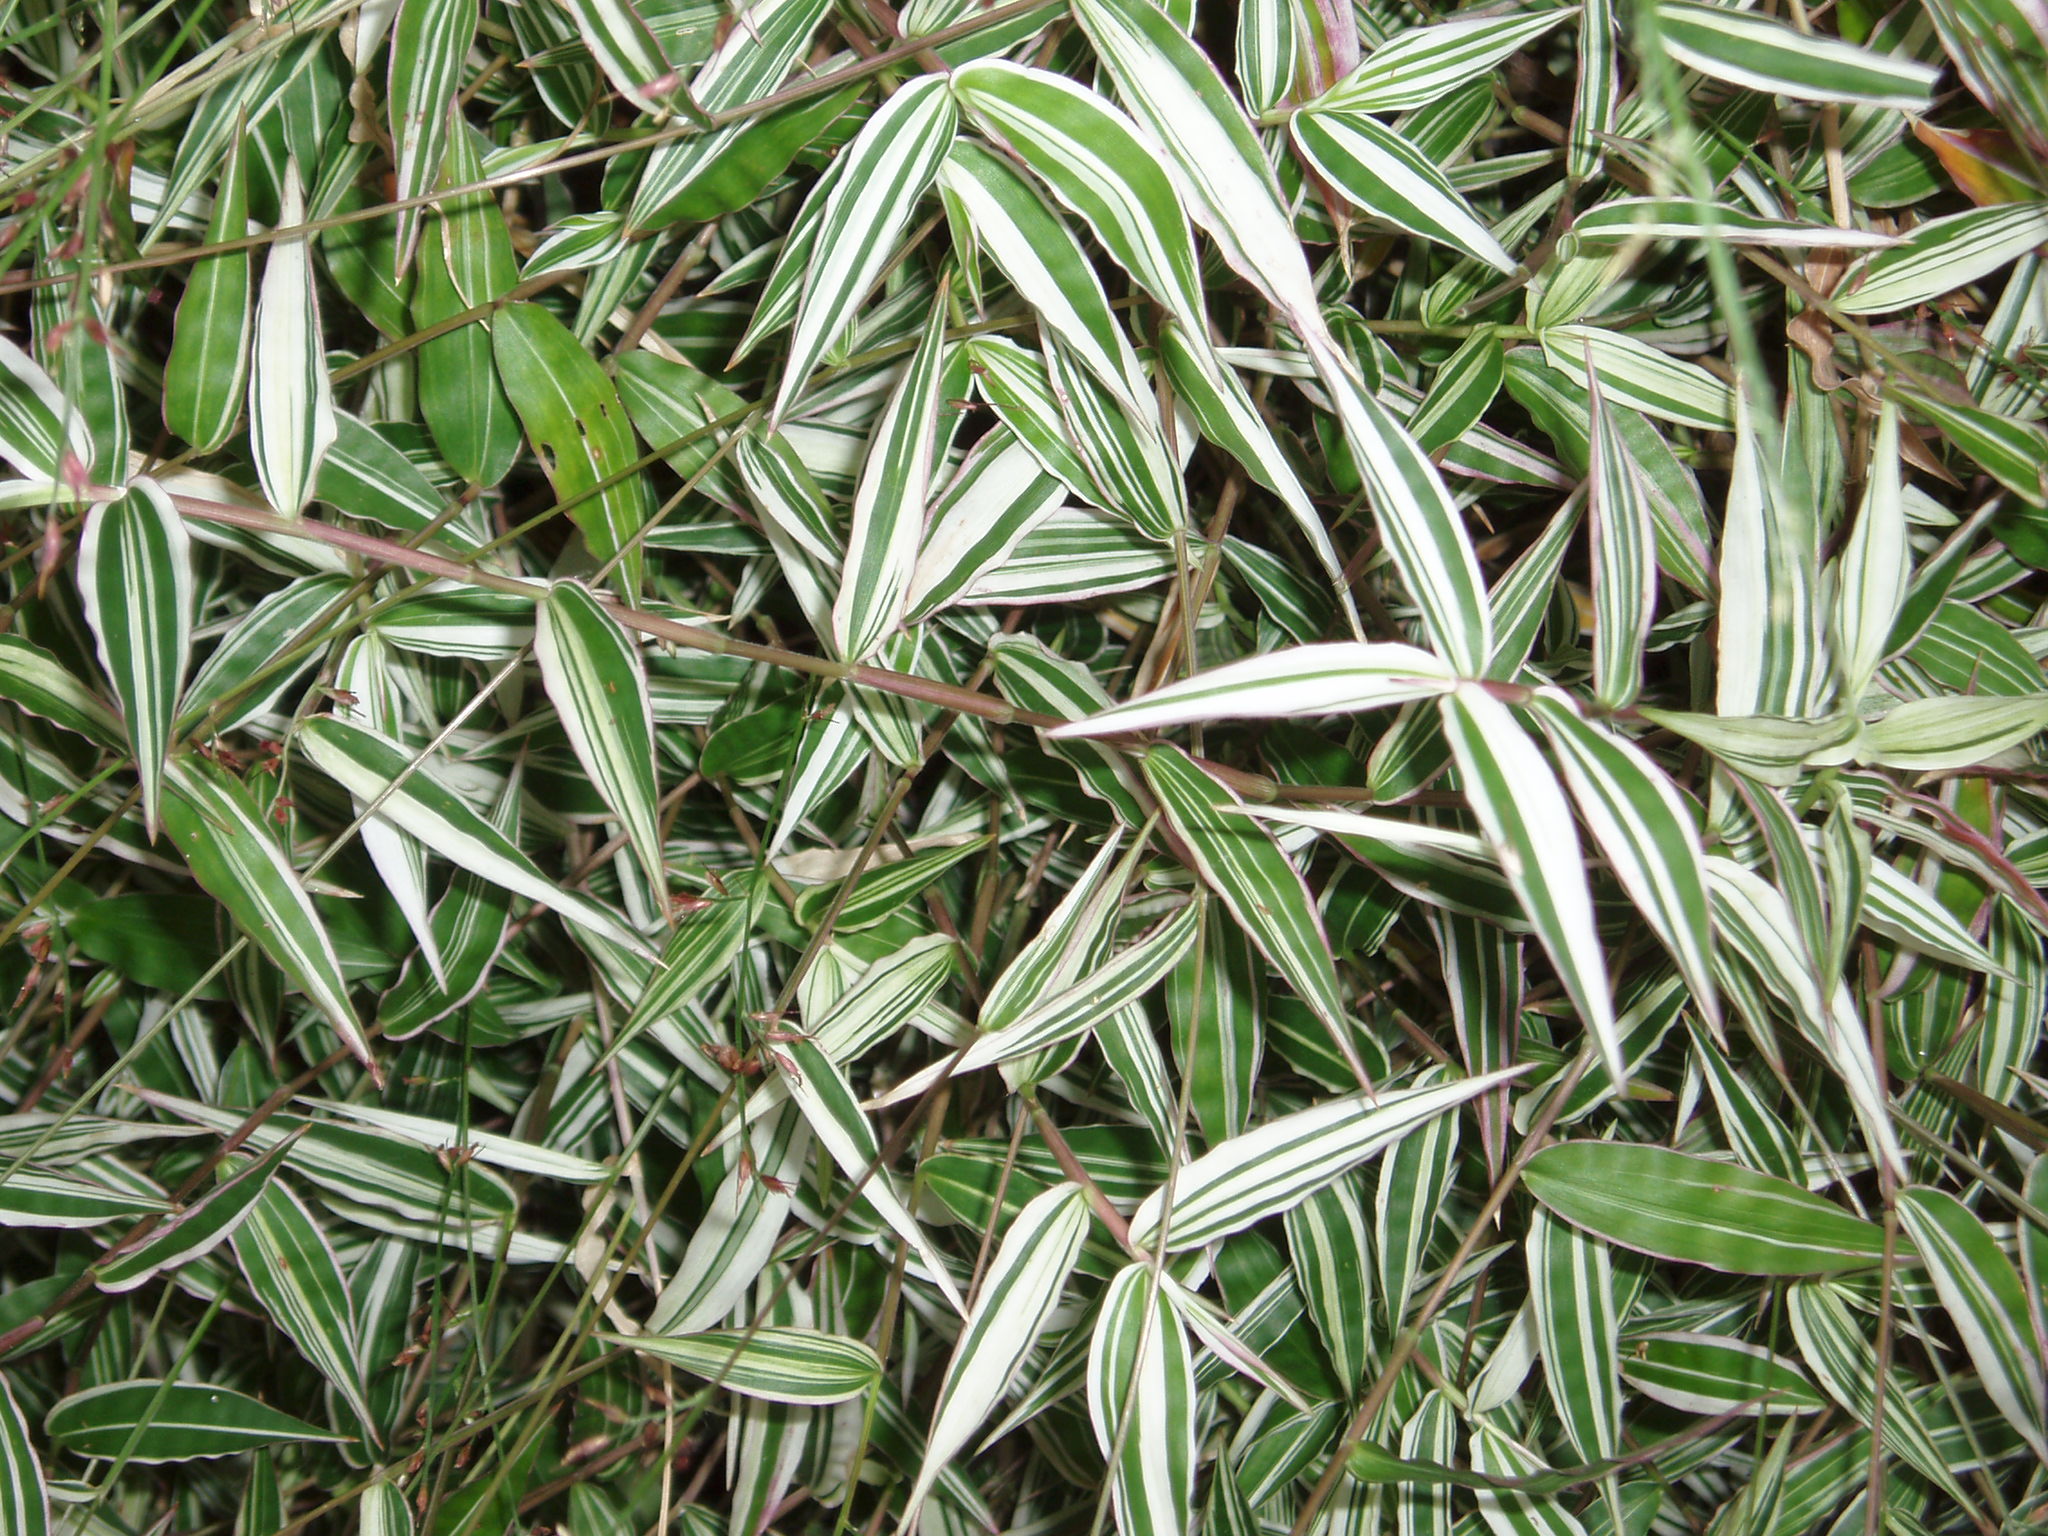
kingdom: Chromista
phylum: Ochrophyta
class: Phaeophyceae
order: Fucales
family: Xiphophoraceae
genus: Xiphophora
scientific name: Xiphophora chondrophylla
